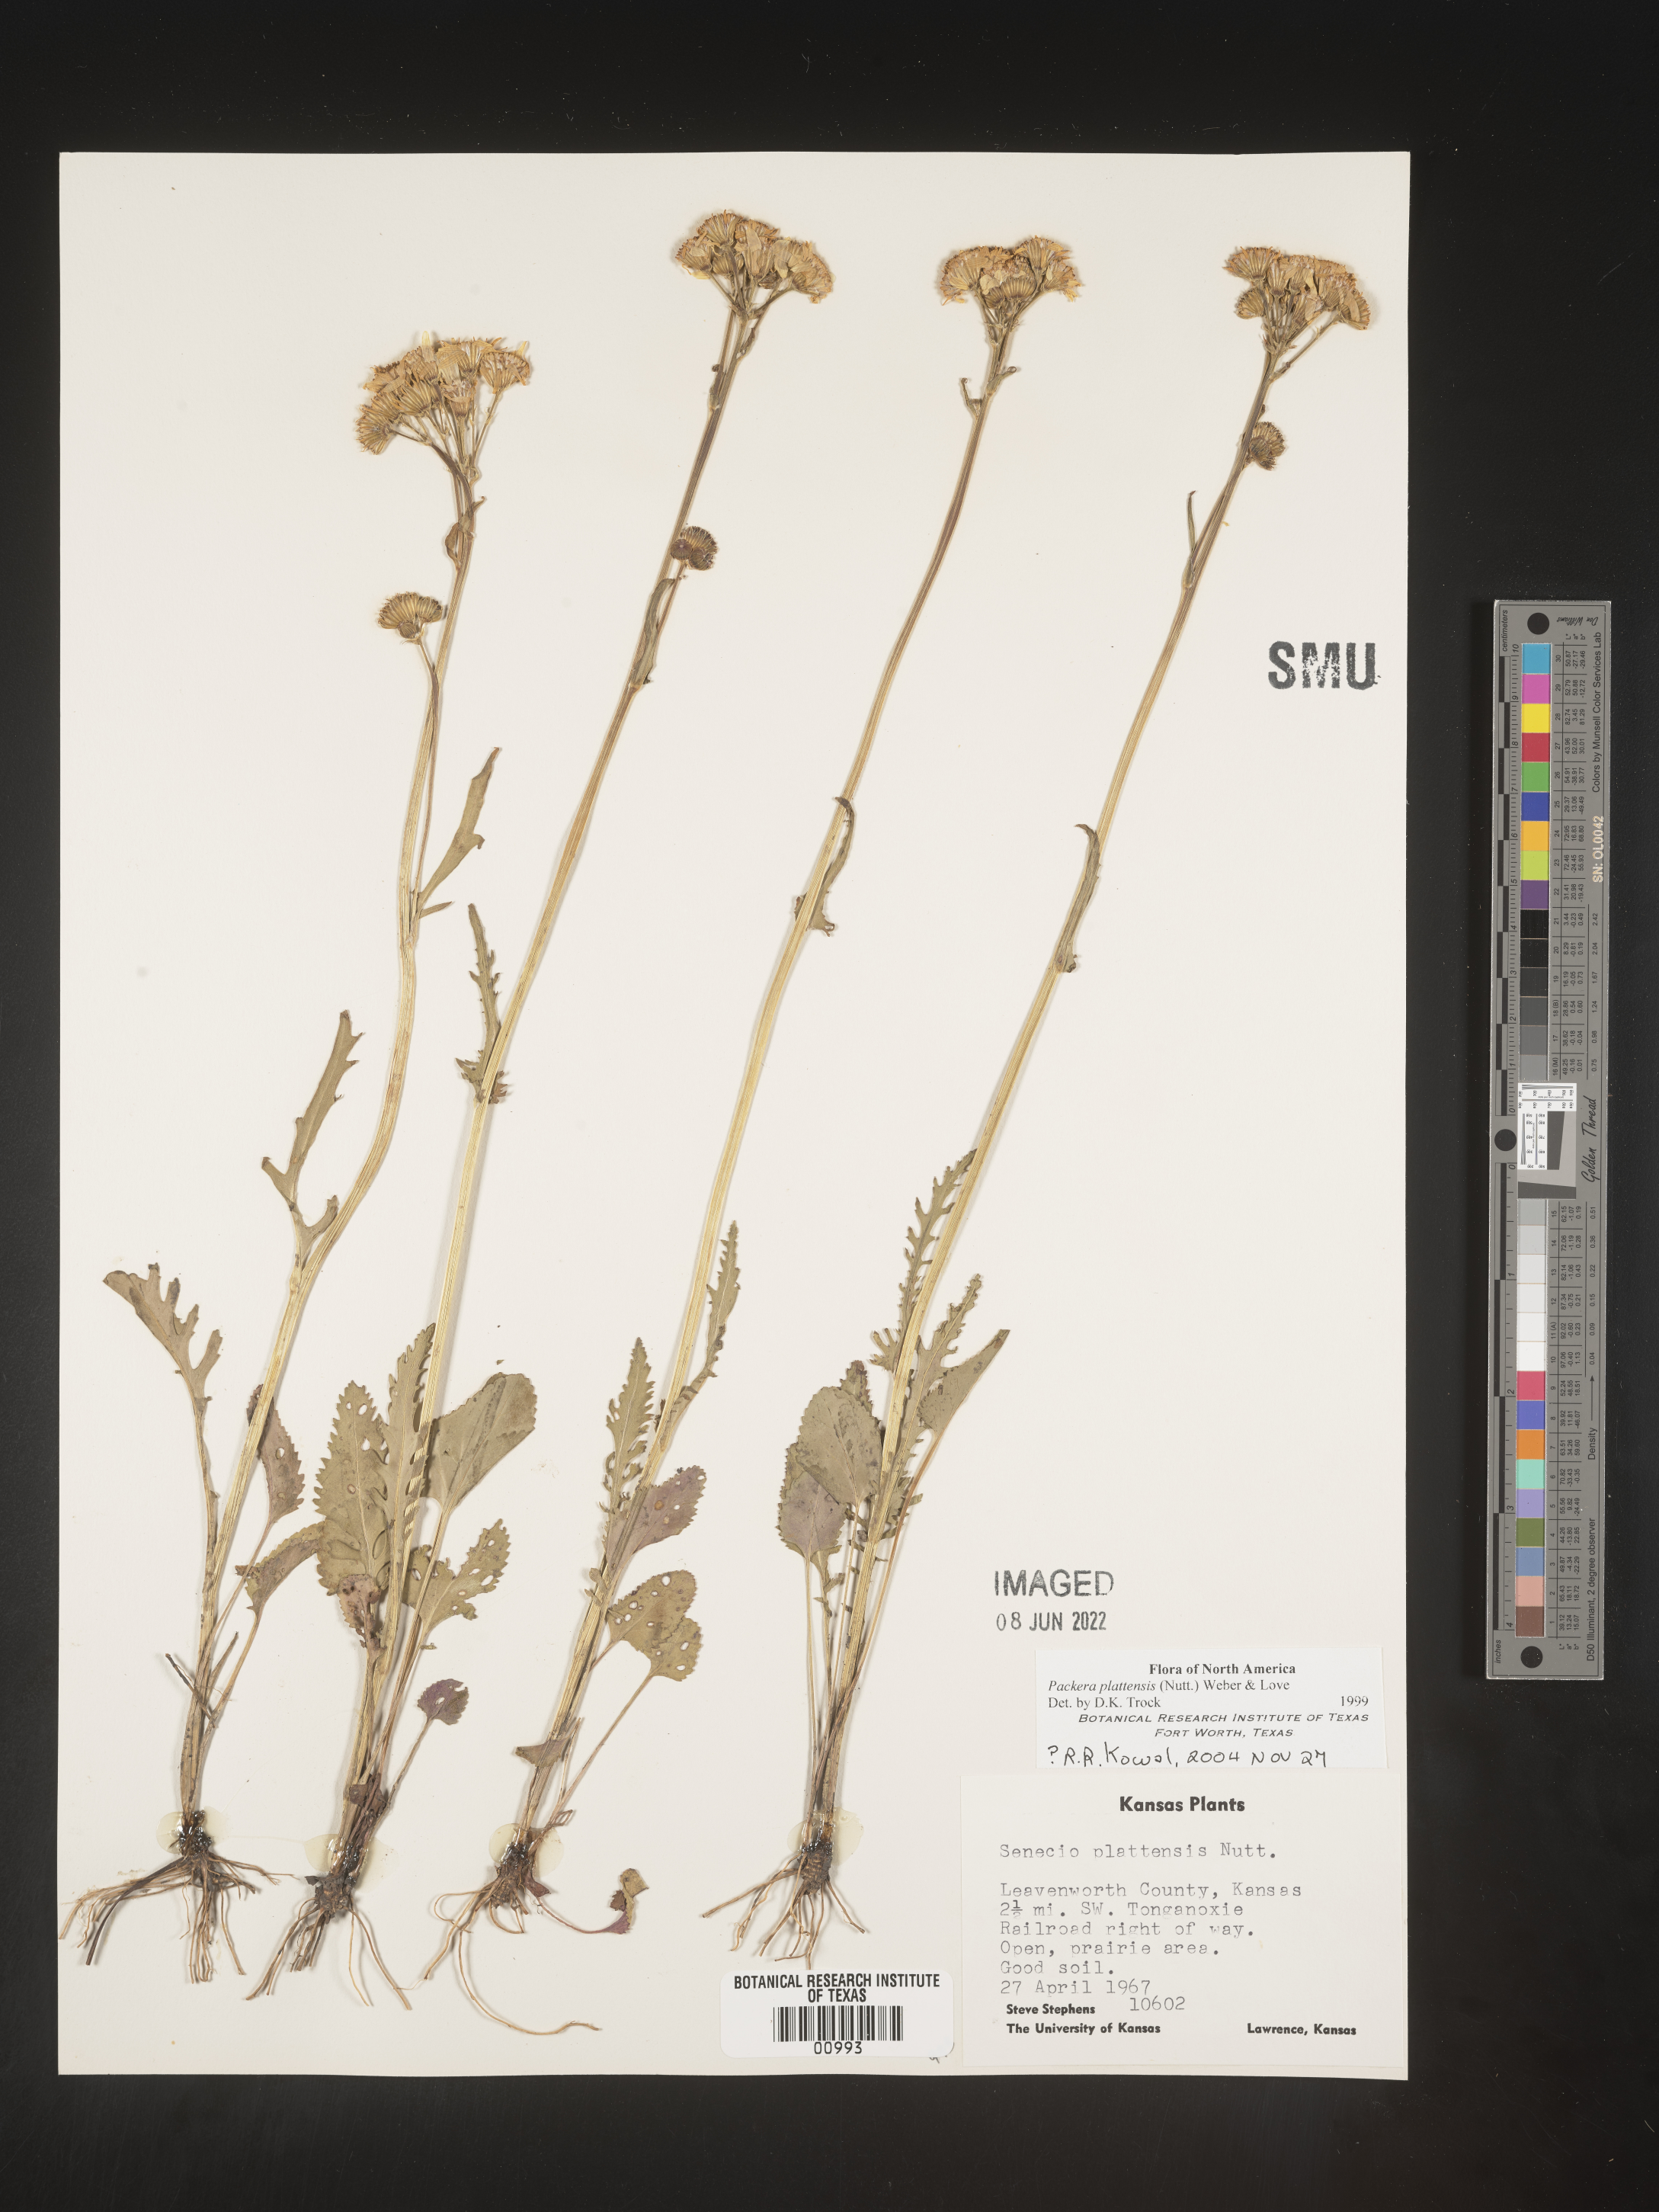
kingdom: Plantae
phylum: Tracheophyta
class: Magnoliopsida
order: Asterales
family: Asteraceae
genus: Packera
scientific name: Packera plattensis
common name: Prairie groundsel
